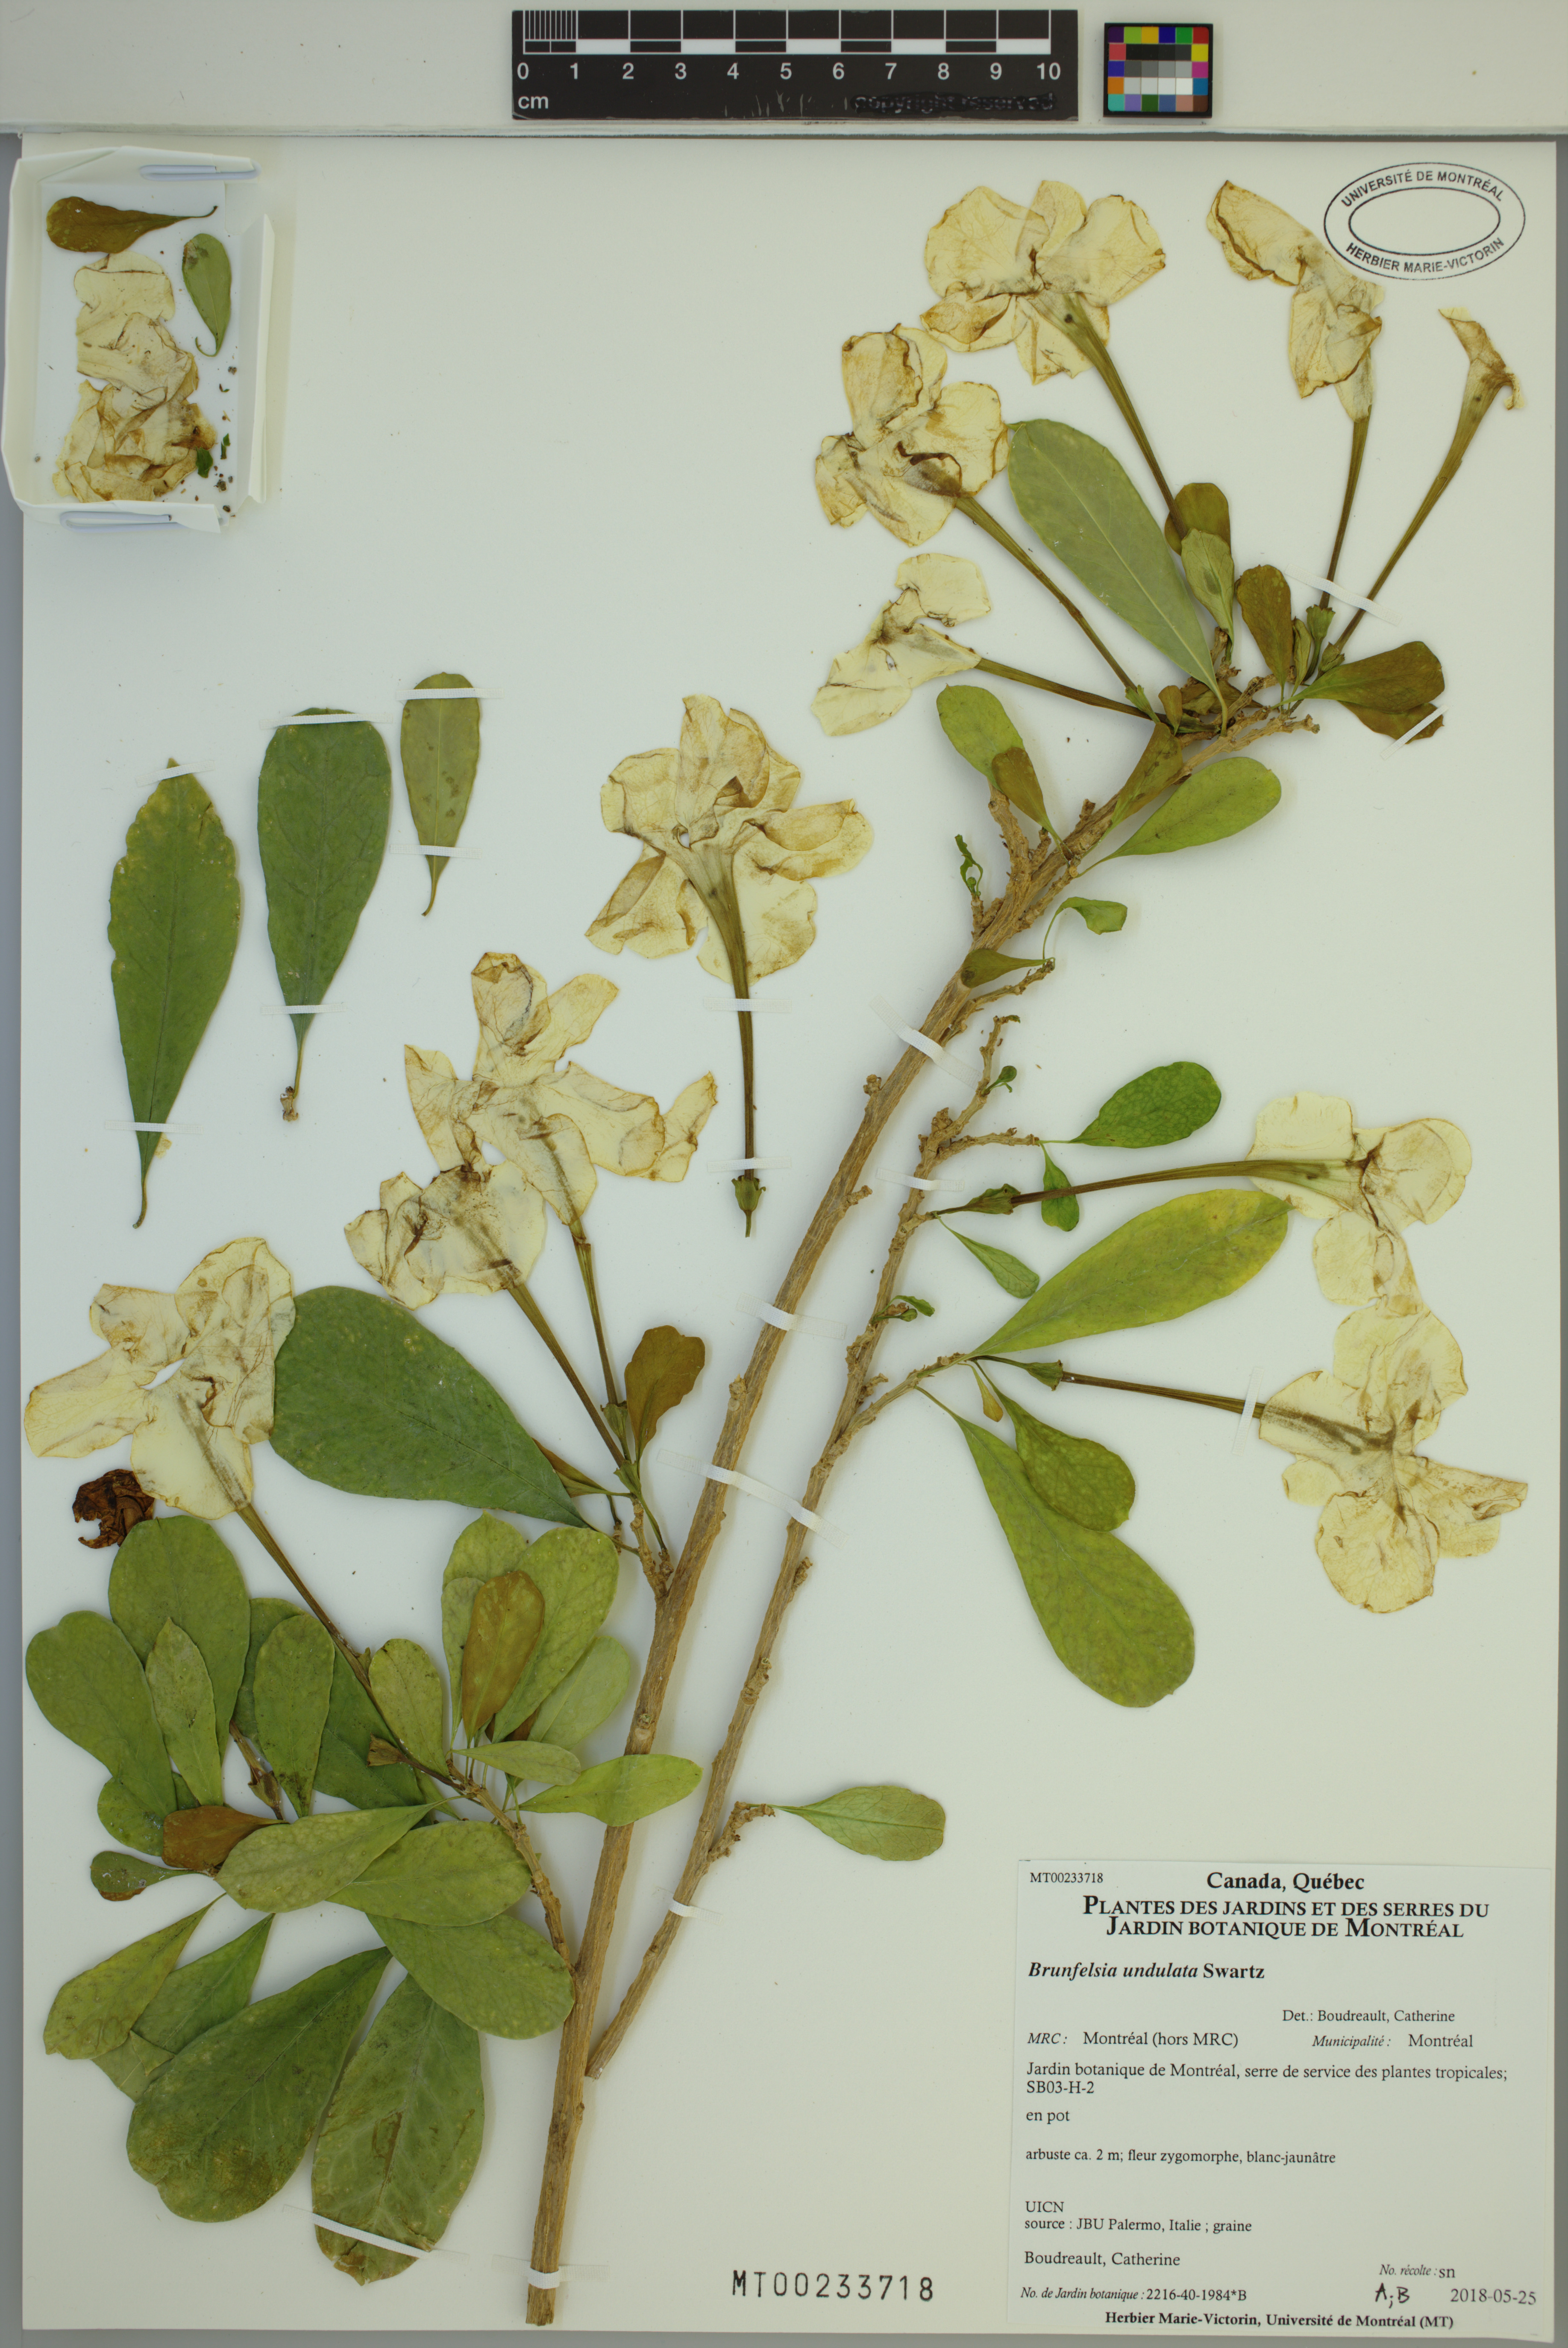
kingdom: Plantae
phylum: Tracheophyta
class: Magnoliopsida
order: Solanales
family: Solanaceae
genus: Brunfelsia
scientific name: Brunfelsia undulata
